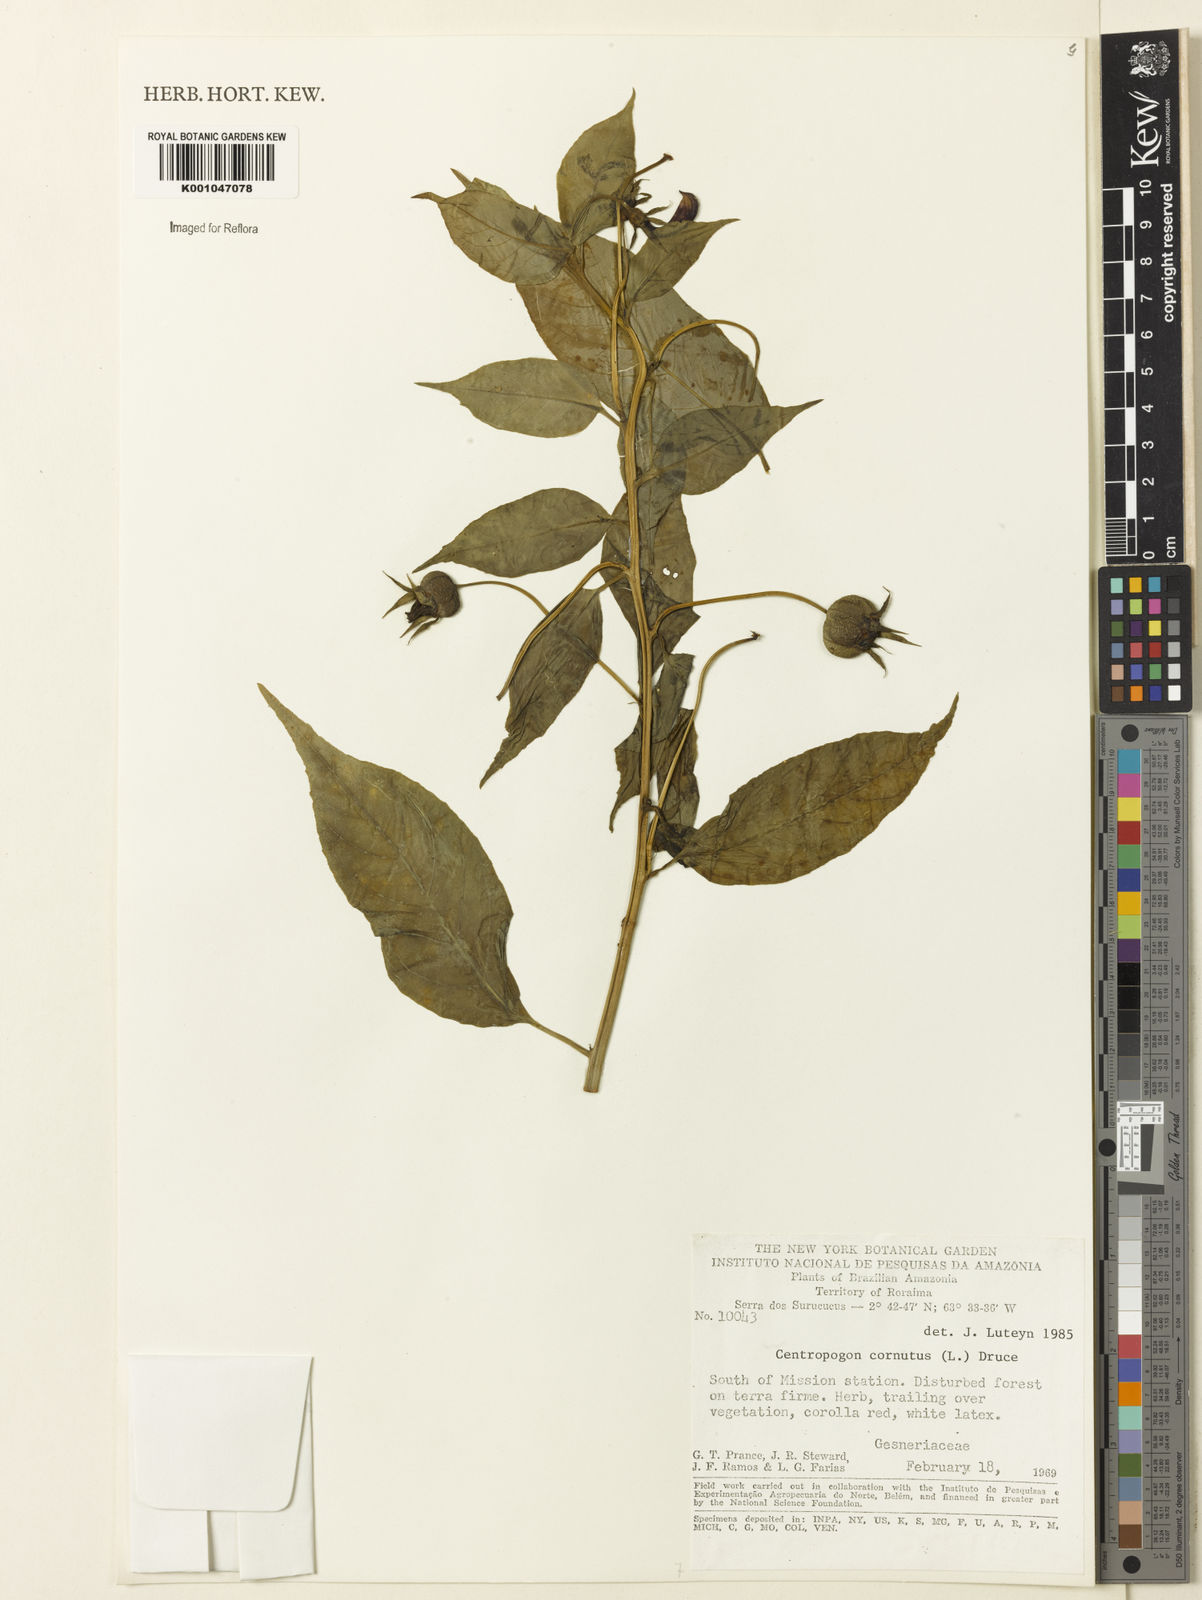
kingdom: Plantae
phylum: Tracheophyta
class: Magnoliopsida
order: Asterales
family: Campanulaceae
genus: Centropogon
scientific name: Centropogon cornutus
